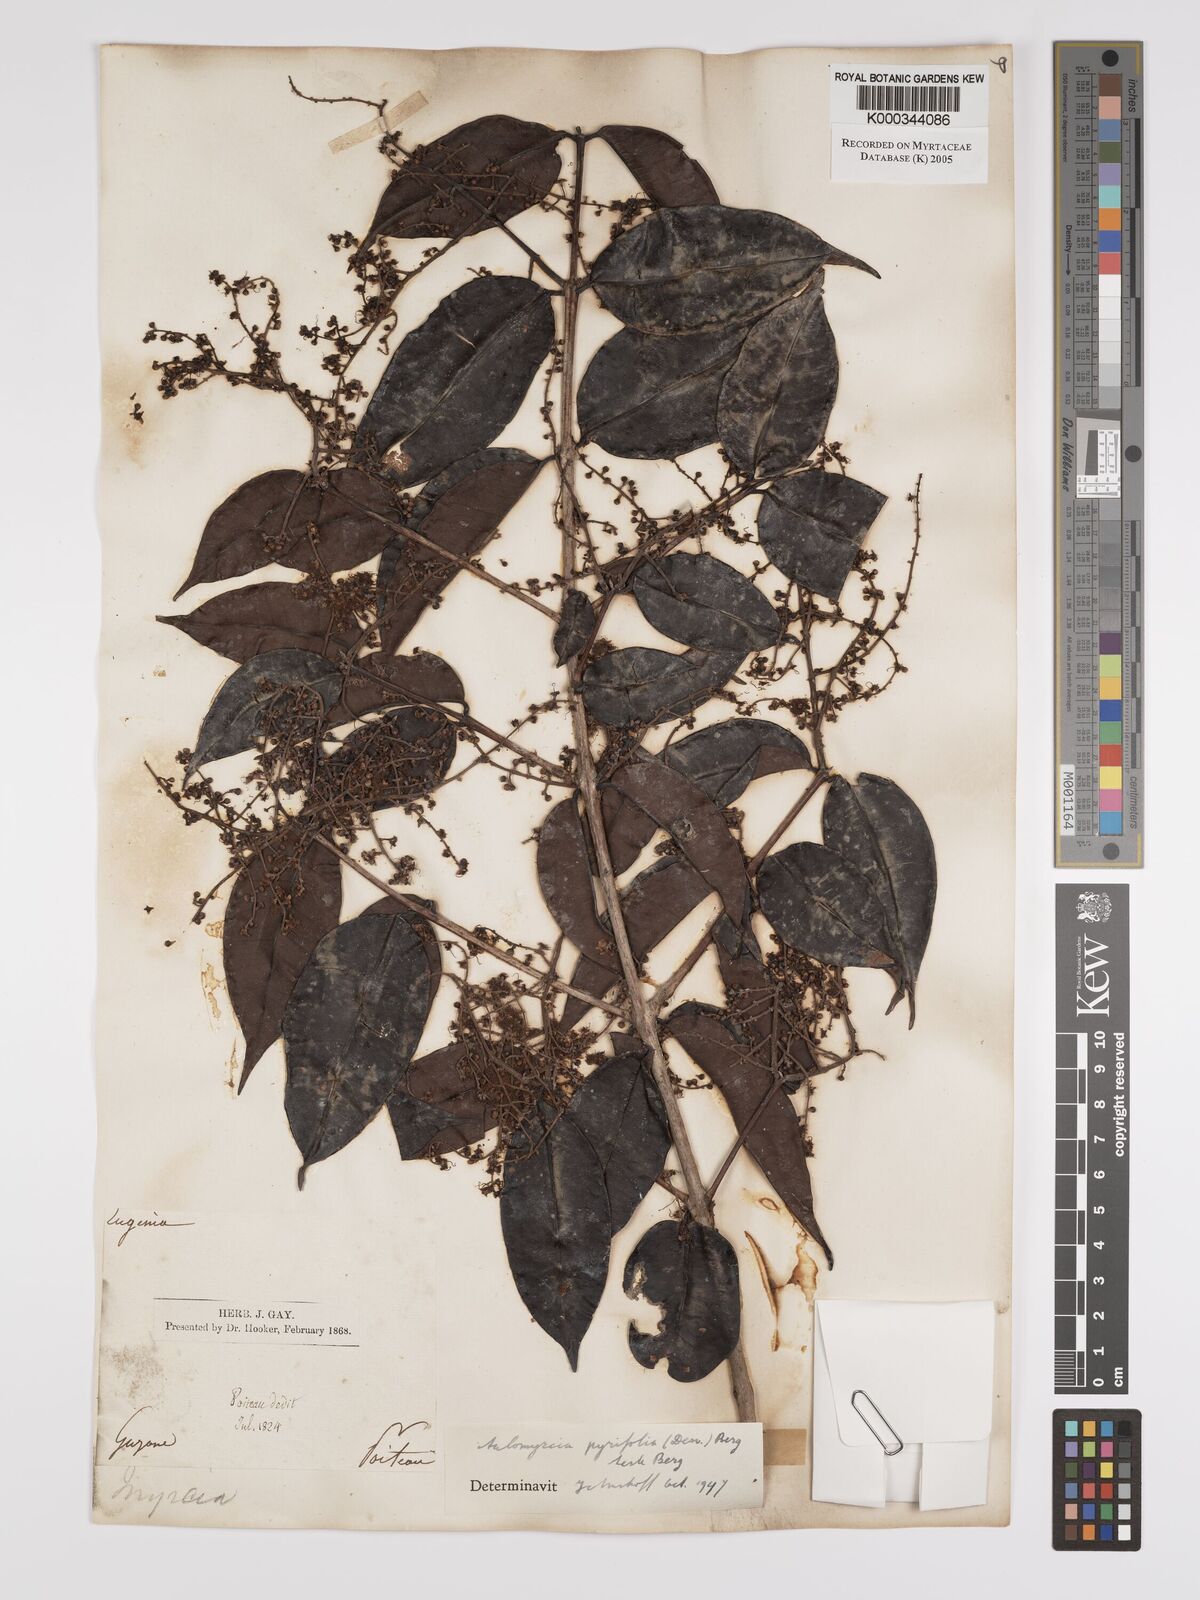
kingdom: Plantae
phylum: Tracheophyta
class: Magnoliopsida
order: Myrtales
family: Myrtaceae
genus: Myrcia
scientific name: Myrcia pyrifolia
